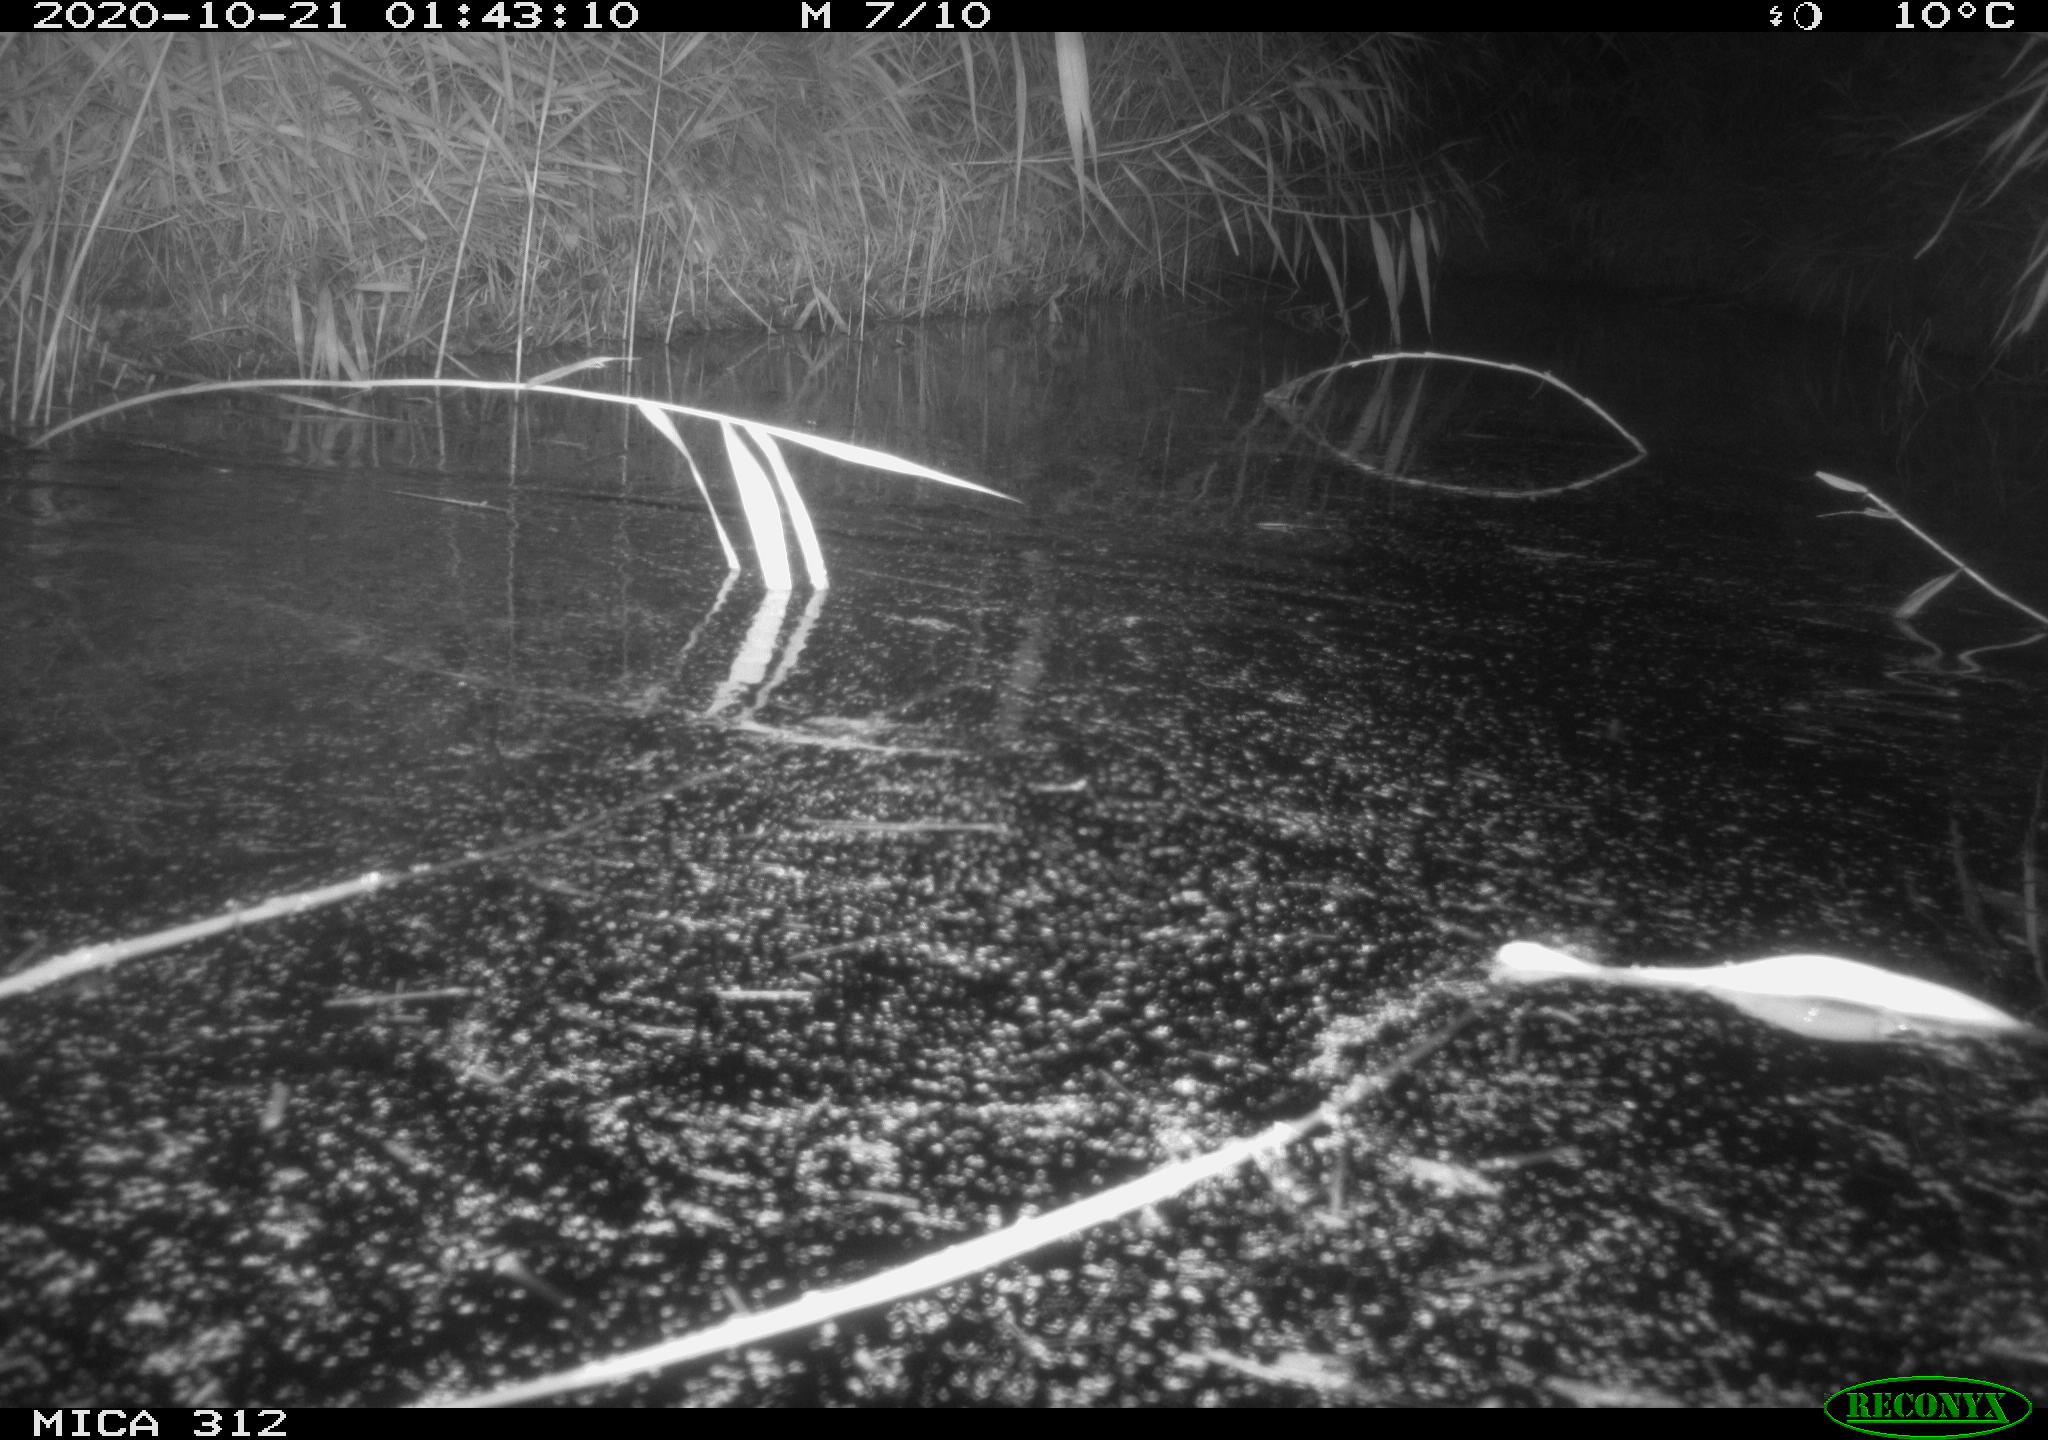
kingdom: Animalia
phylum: Chordata
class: Mammalia
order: Rodentia
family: Muridae
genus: Rattus
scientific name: Rattus norvegicus
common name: Brown rat
